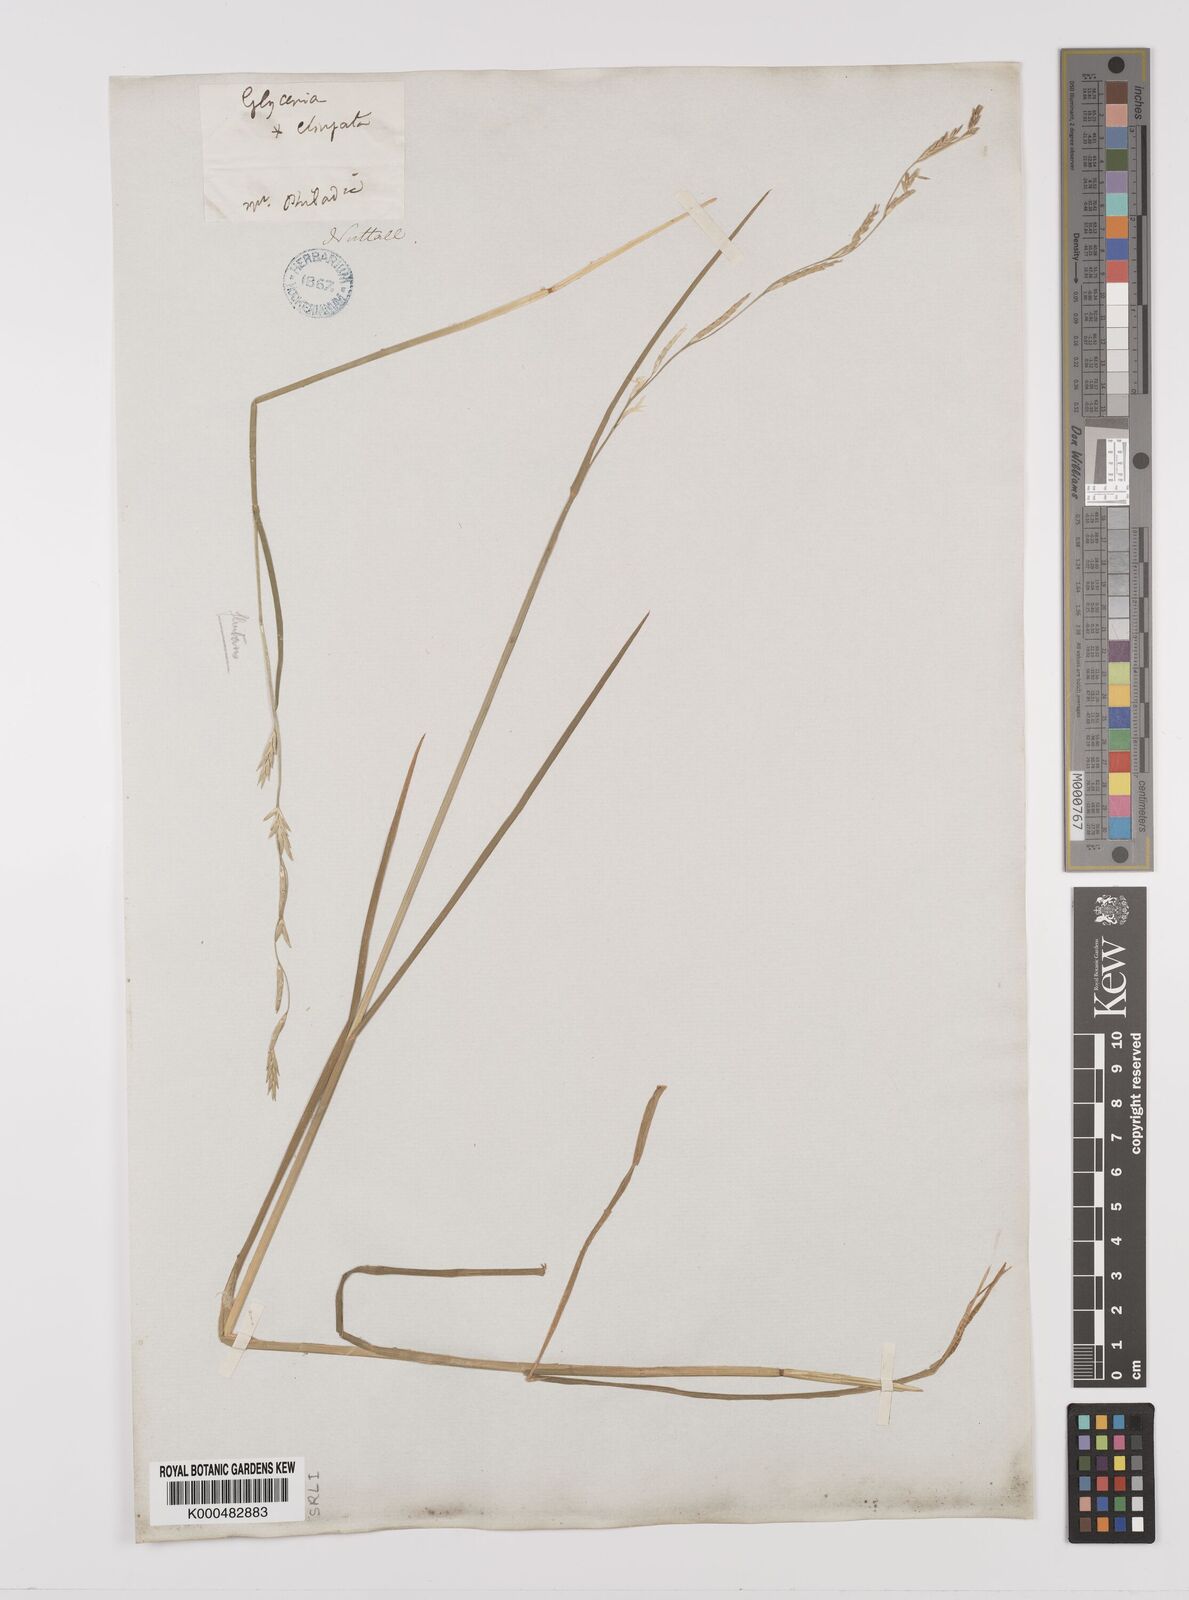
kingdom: Plantae
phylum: Tracheophyta
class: Liliopsida
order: Poales
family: Poaceae
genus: Glyceria
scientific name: Glyceria septentrionalis
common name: Eastern mannagrass
